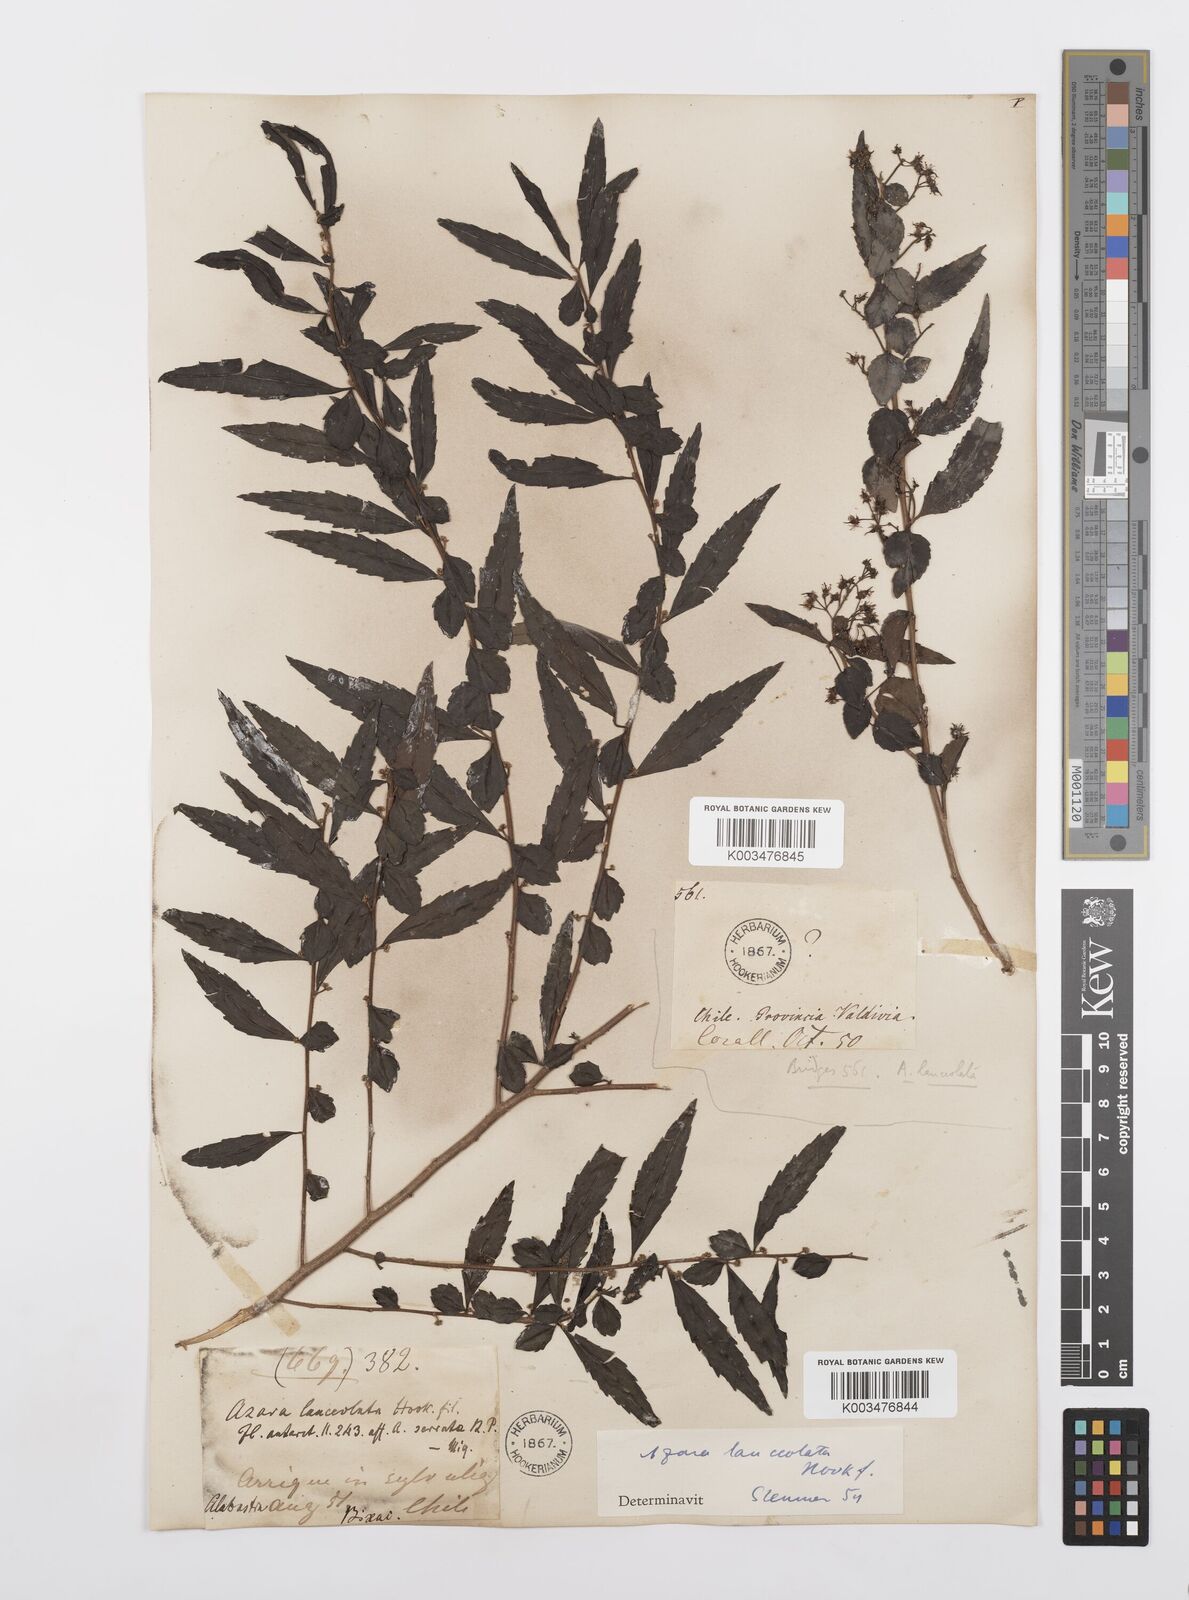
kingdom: Plantae
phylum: Tracheophyta
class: Magnoliopsida
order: Malpighiales
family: Salicaceae
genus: Azara
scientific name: Azara lanceolata
